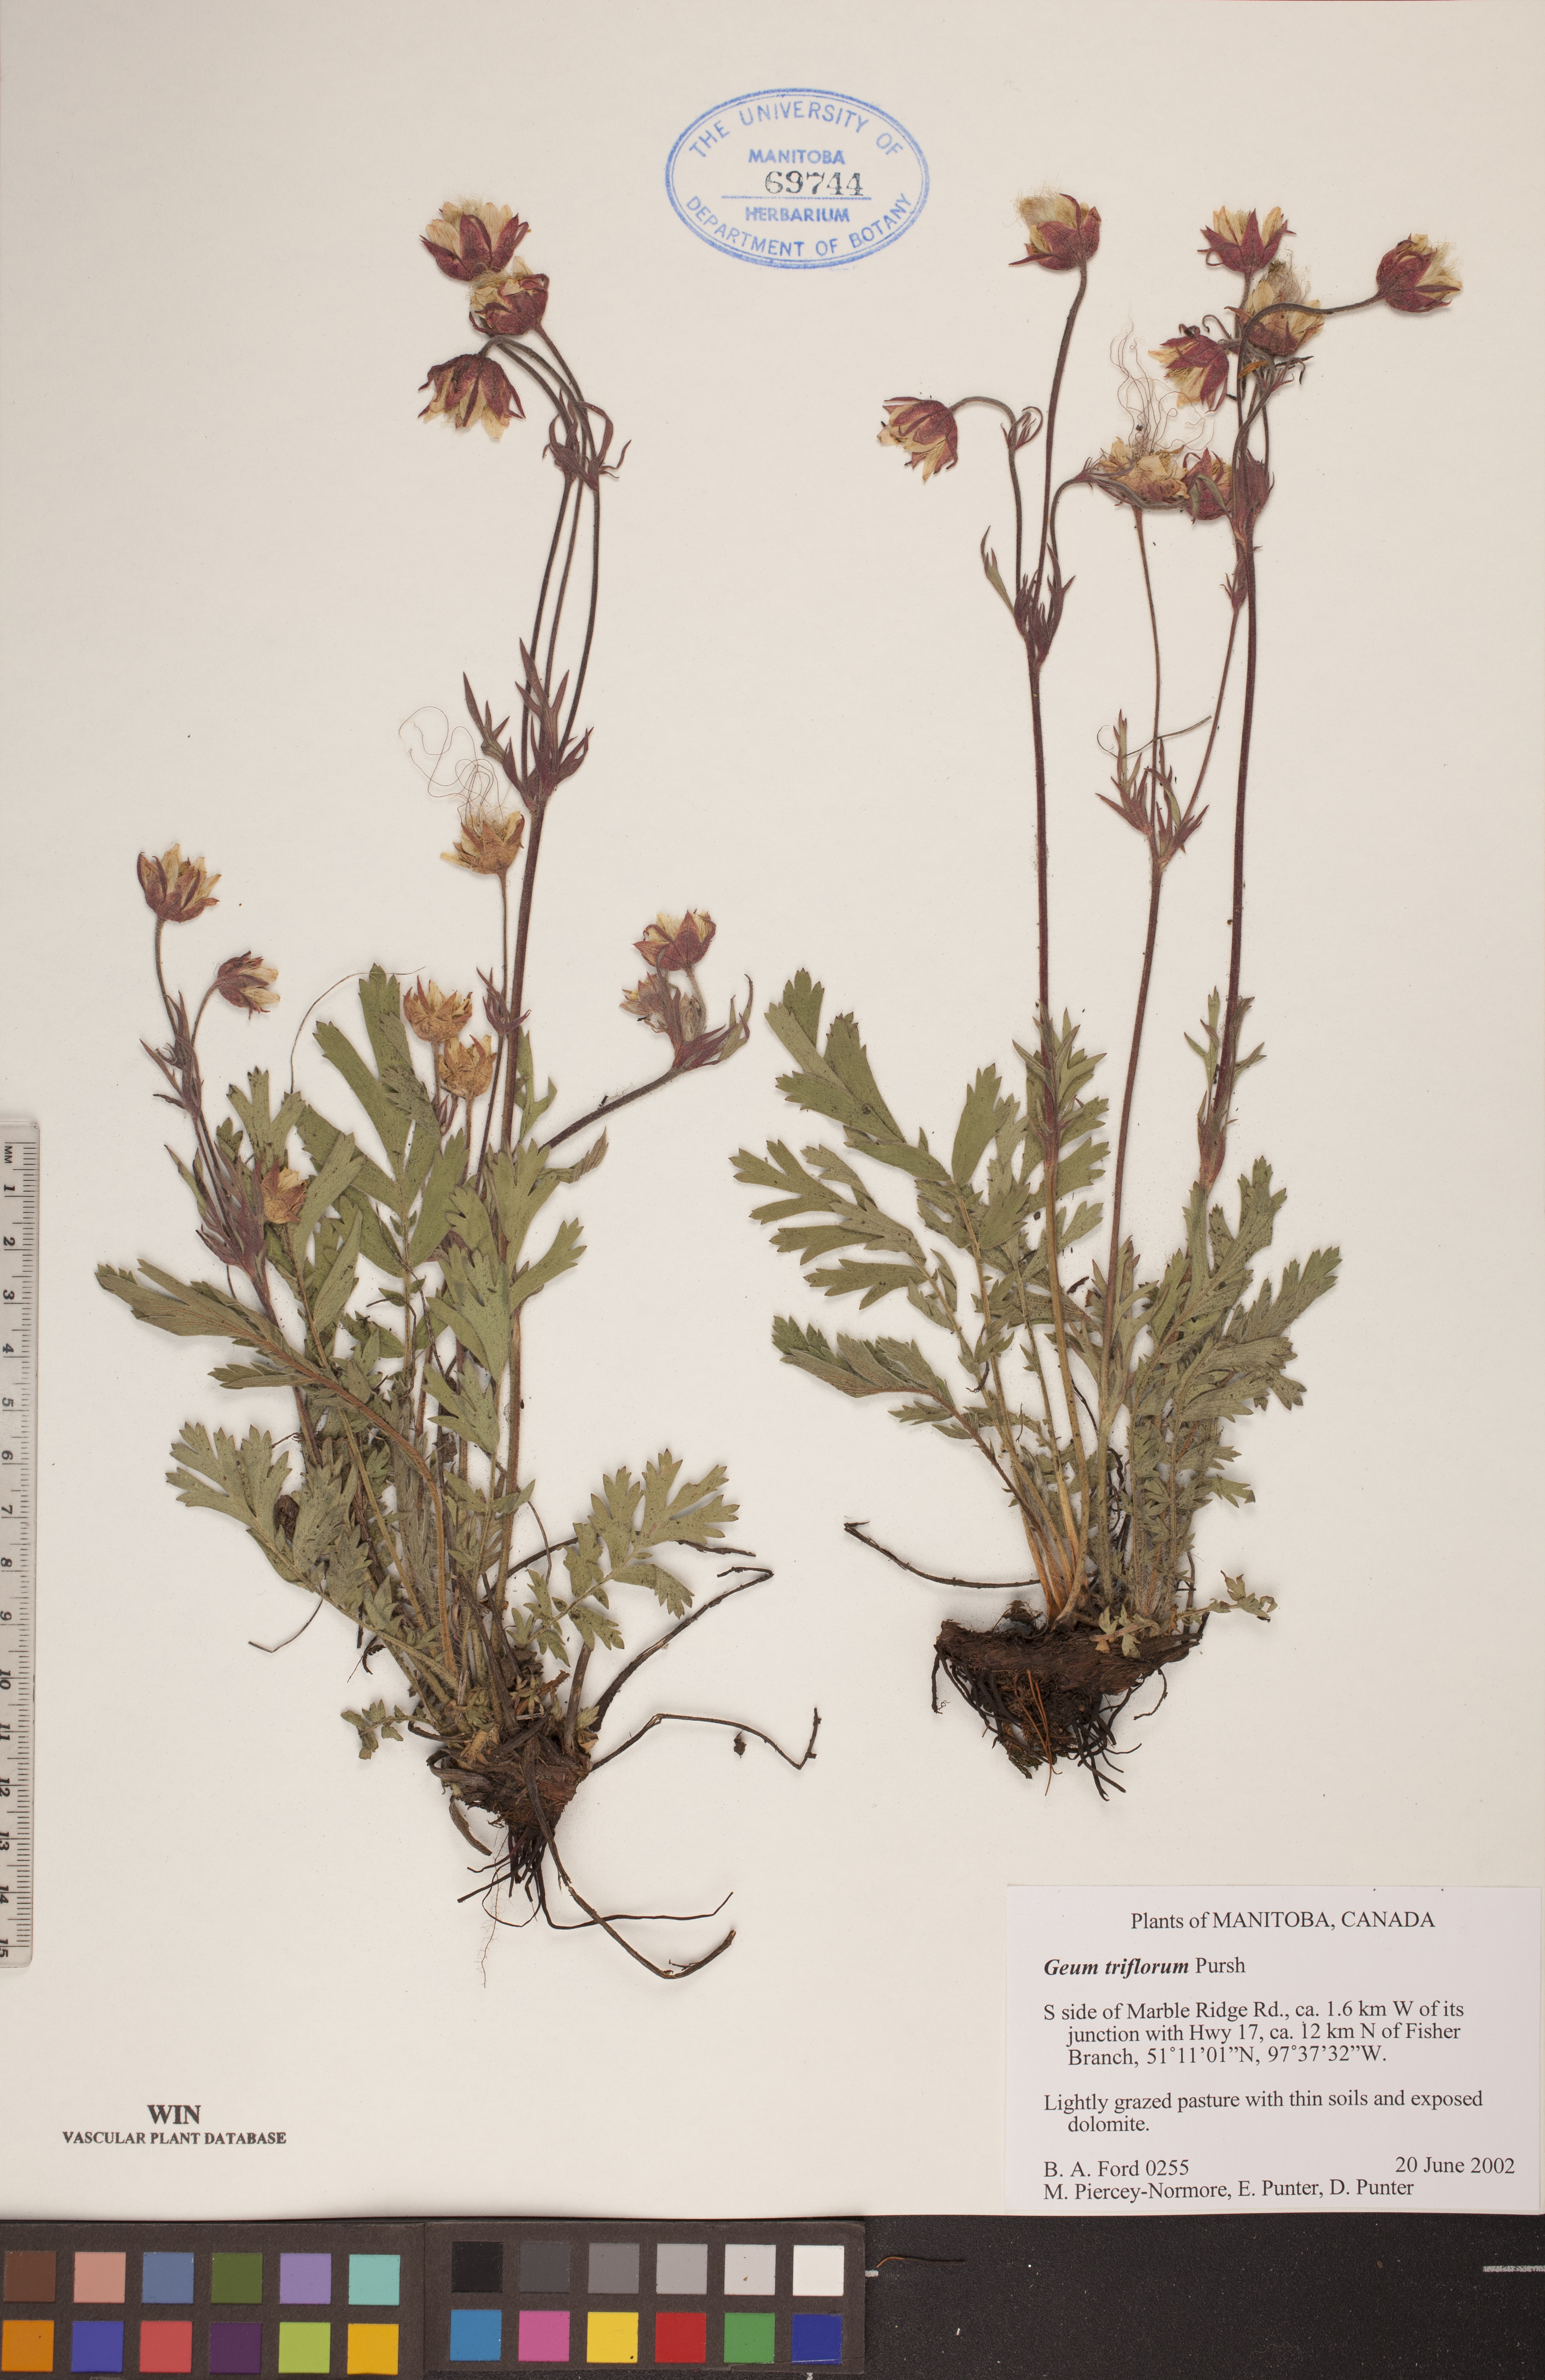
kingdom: Plantae
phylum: Tracheophyta
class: Magnoliopsida
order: Rosales
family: Rosaceae
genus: Geum
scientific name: Geum triflorum
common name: Old man's whiskers
